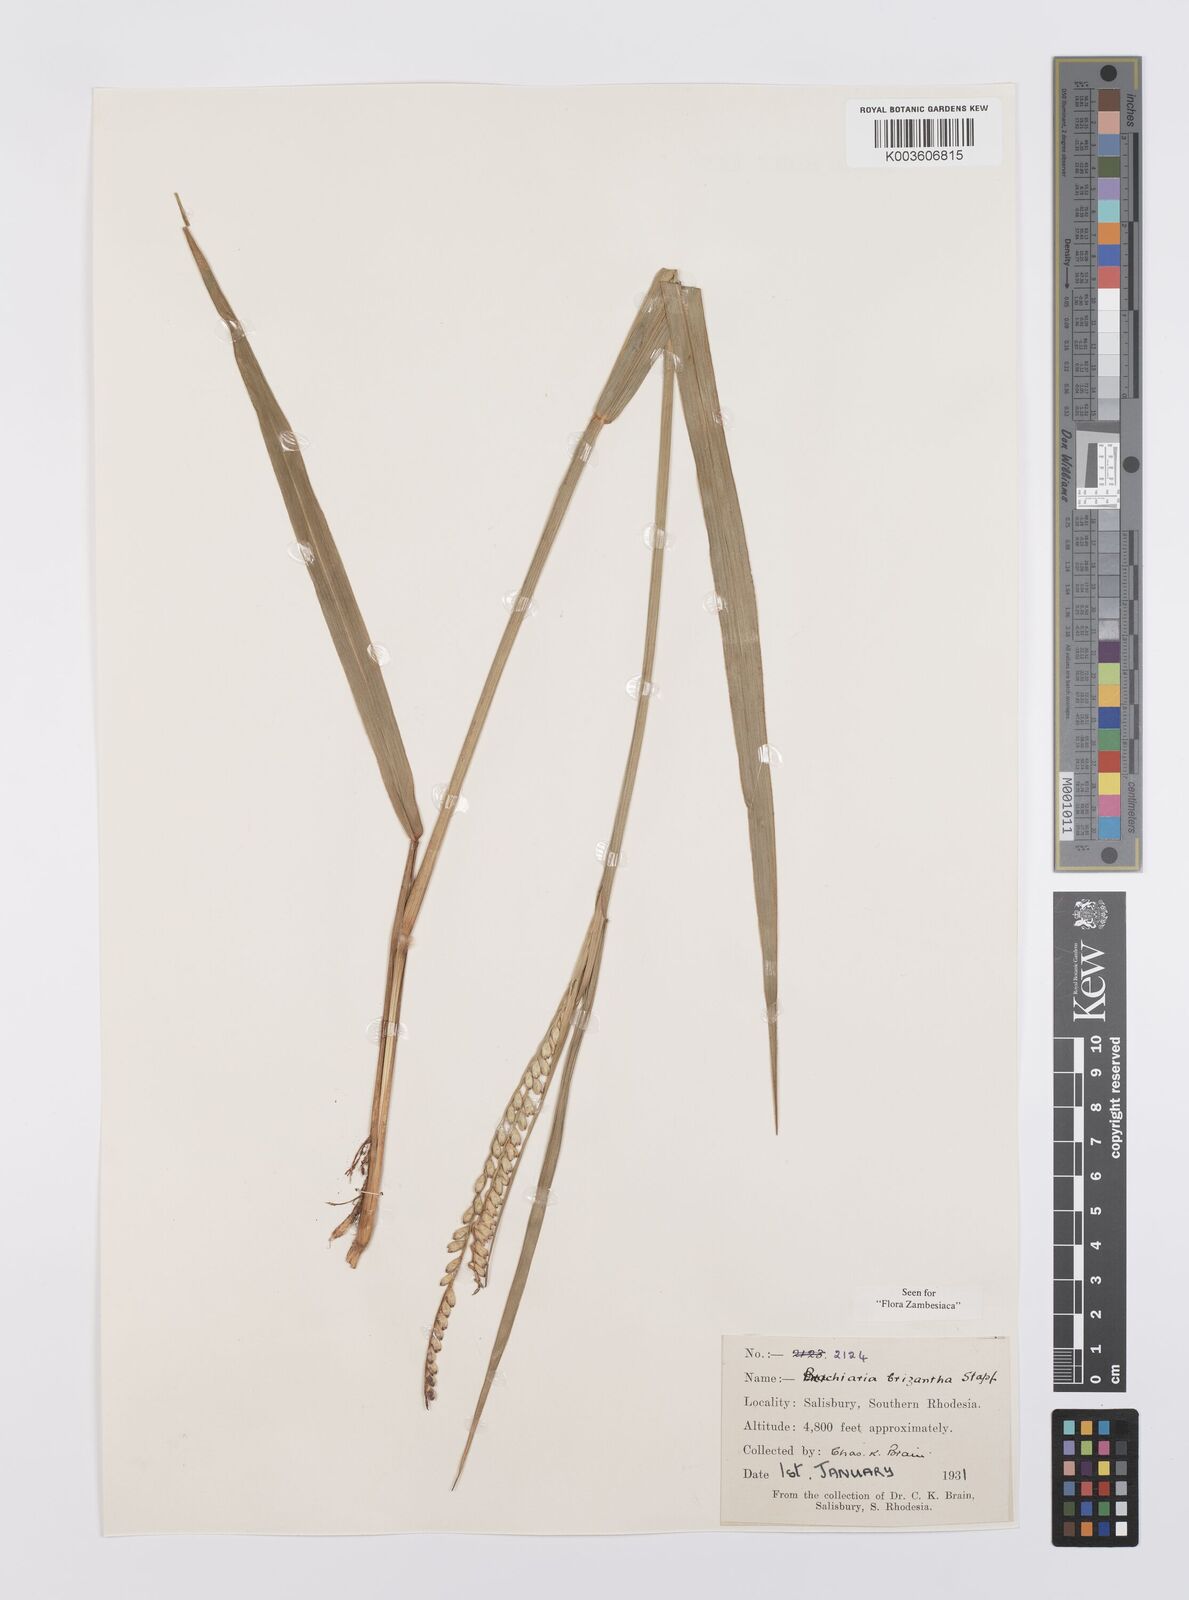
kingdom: Plantae
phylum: Tracheophyta
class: Liliopsida
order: Poales
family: Poaceae
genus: Urochloa
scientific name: Urochloa brizantha
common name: Palisade signalgrass
